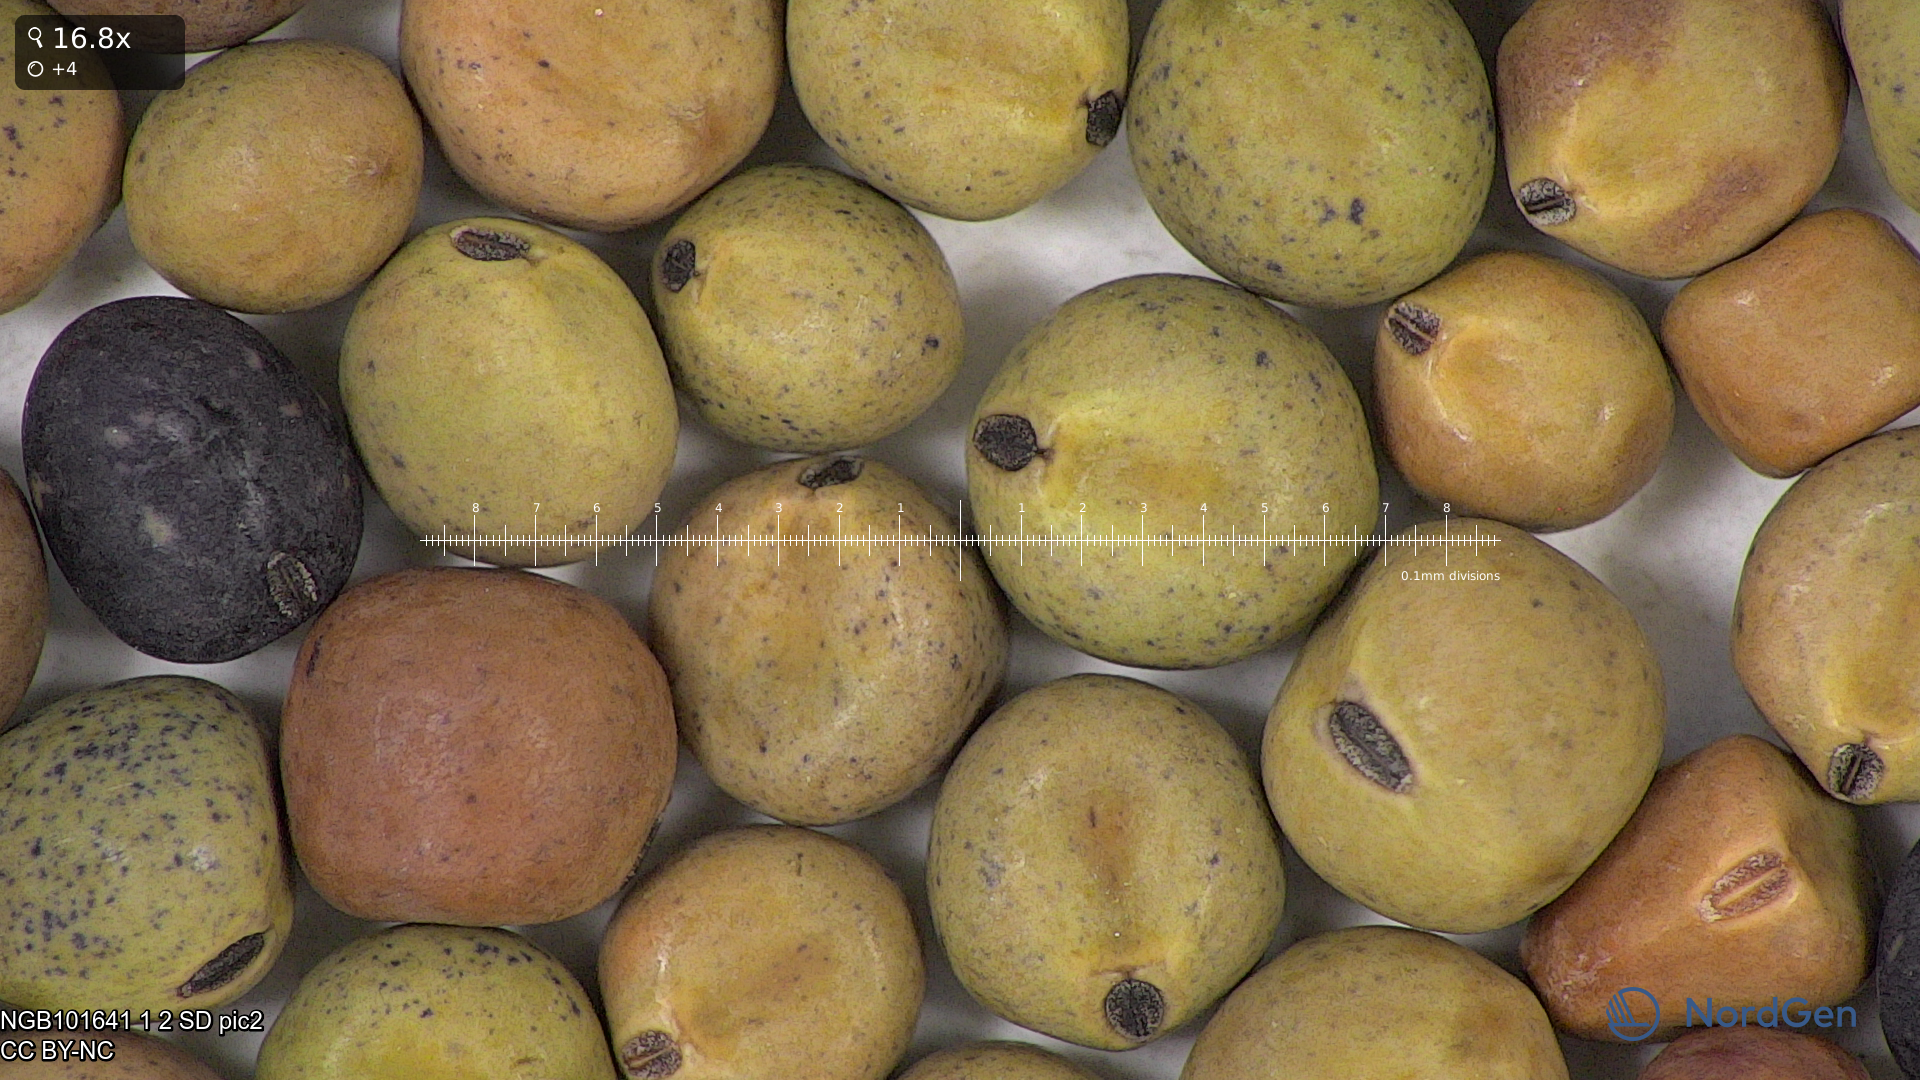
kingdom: Plantae
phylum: Tracheophyta
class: Magnoliopsida
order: Fabales
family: Fabaceae
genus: Lathyrus
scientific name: Lathyrus oleraceus
